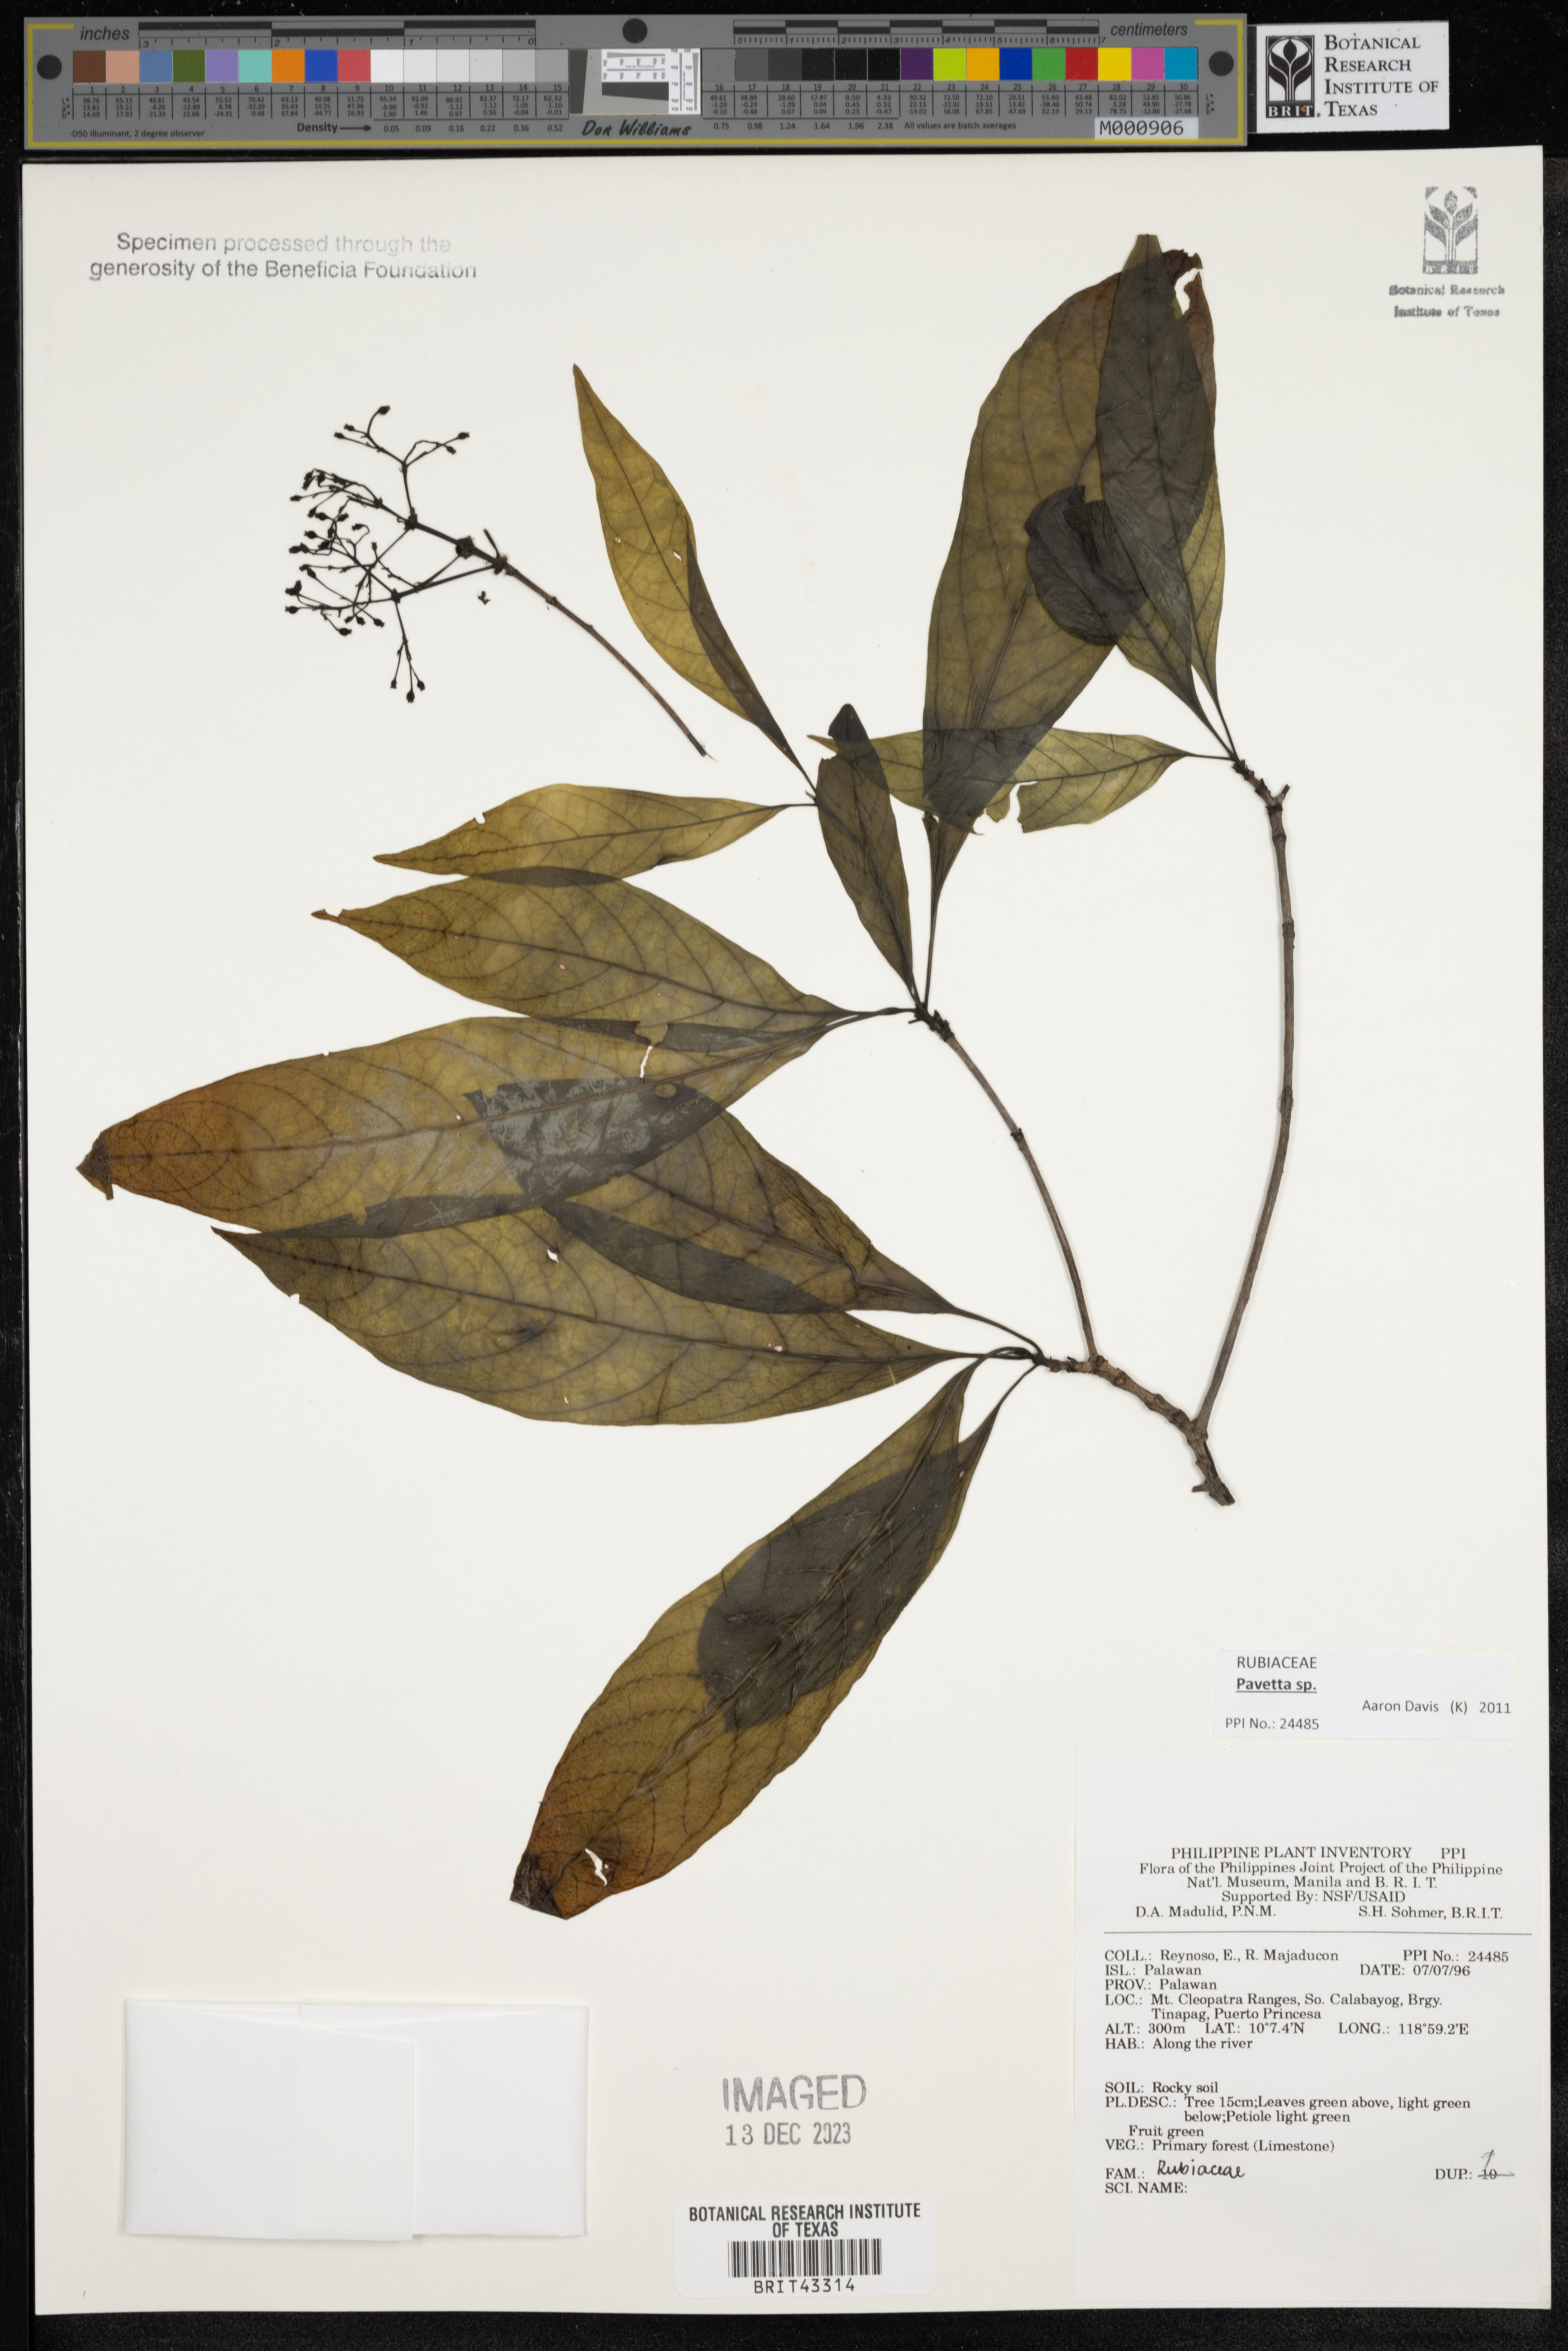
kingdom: Plantae
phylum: Tracheophyta
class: Magnoliopsida
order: Gentianales
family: Rubiaceae
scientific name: Rubiaceae
